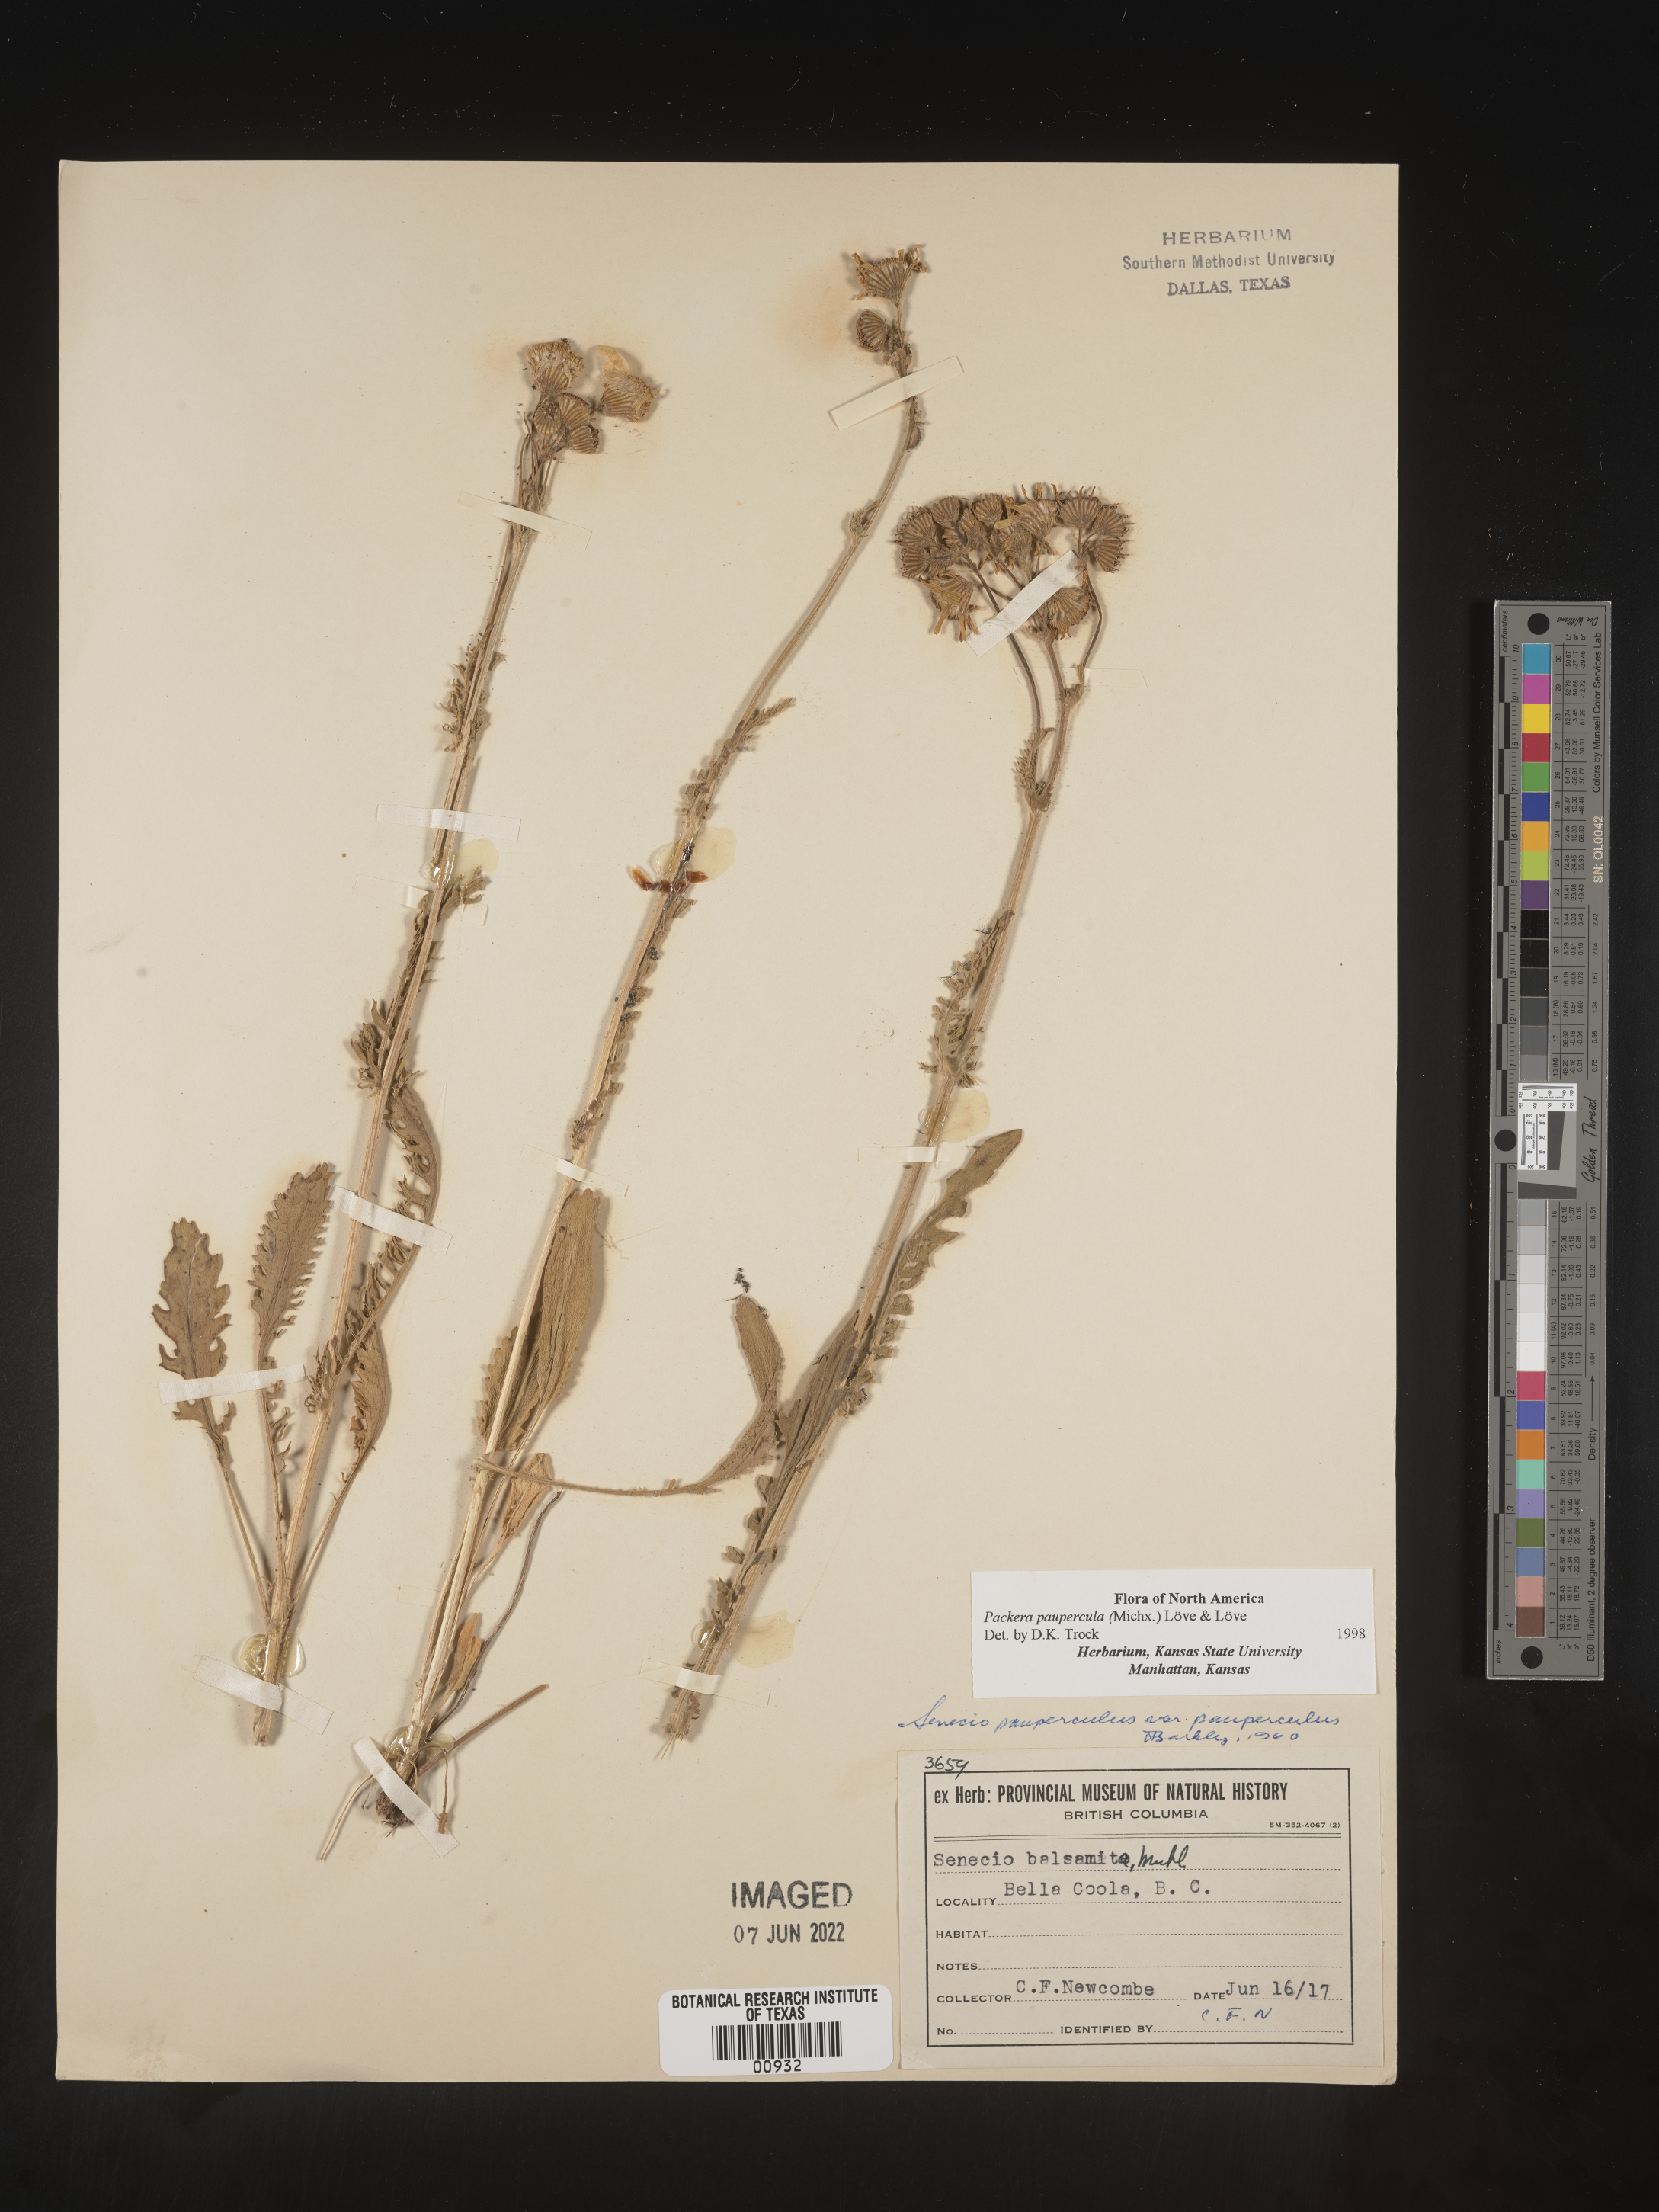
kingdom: Plantae
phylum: Tracheophyta
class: Magnoliopsida
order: Asterales
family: Asteraceae
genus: Packera
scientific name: Packera paupercula
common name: Balsam groundsel
